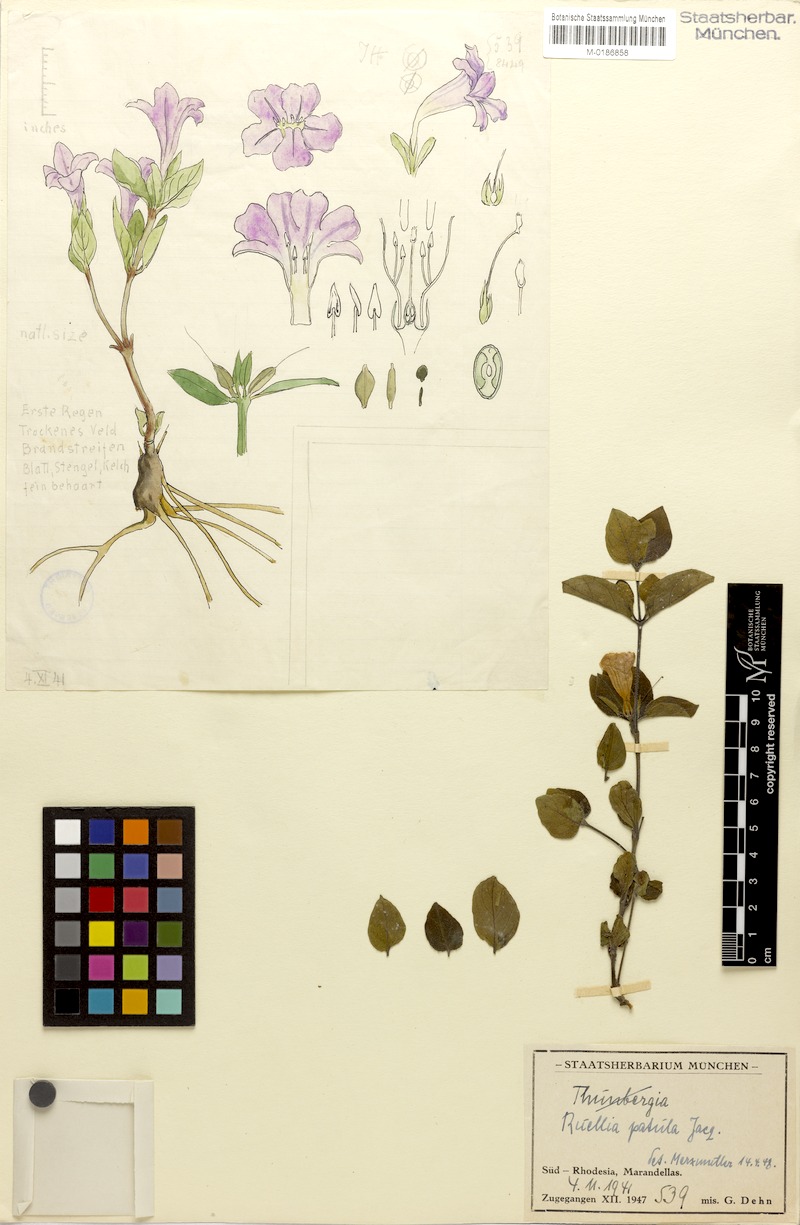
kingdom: Plantae
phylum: Tracheophyta
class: Magnoliopsida
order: Lamiales
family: Acanthaceae
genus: Ruellia
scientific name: Ruellia patula
